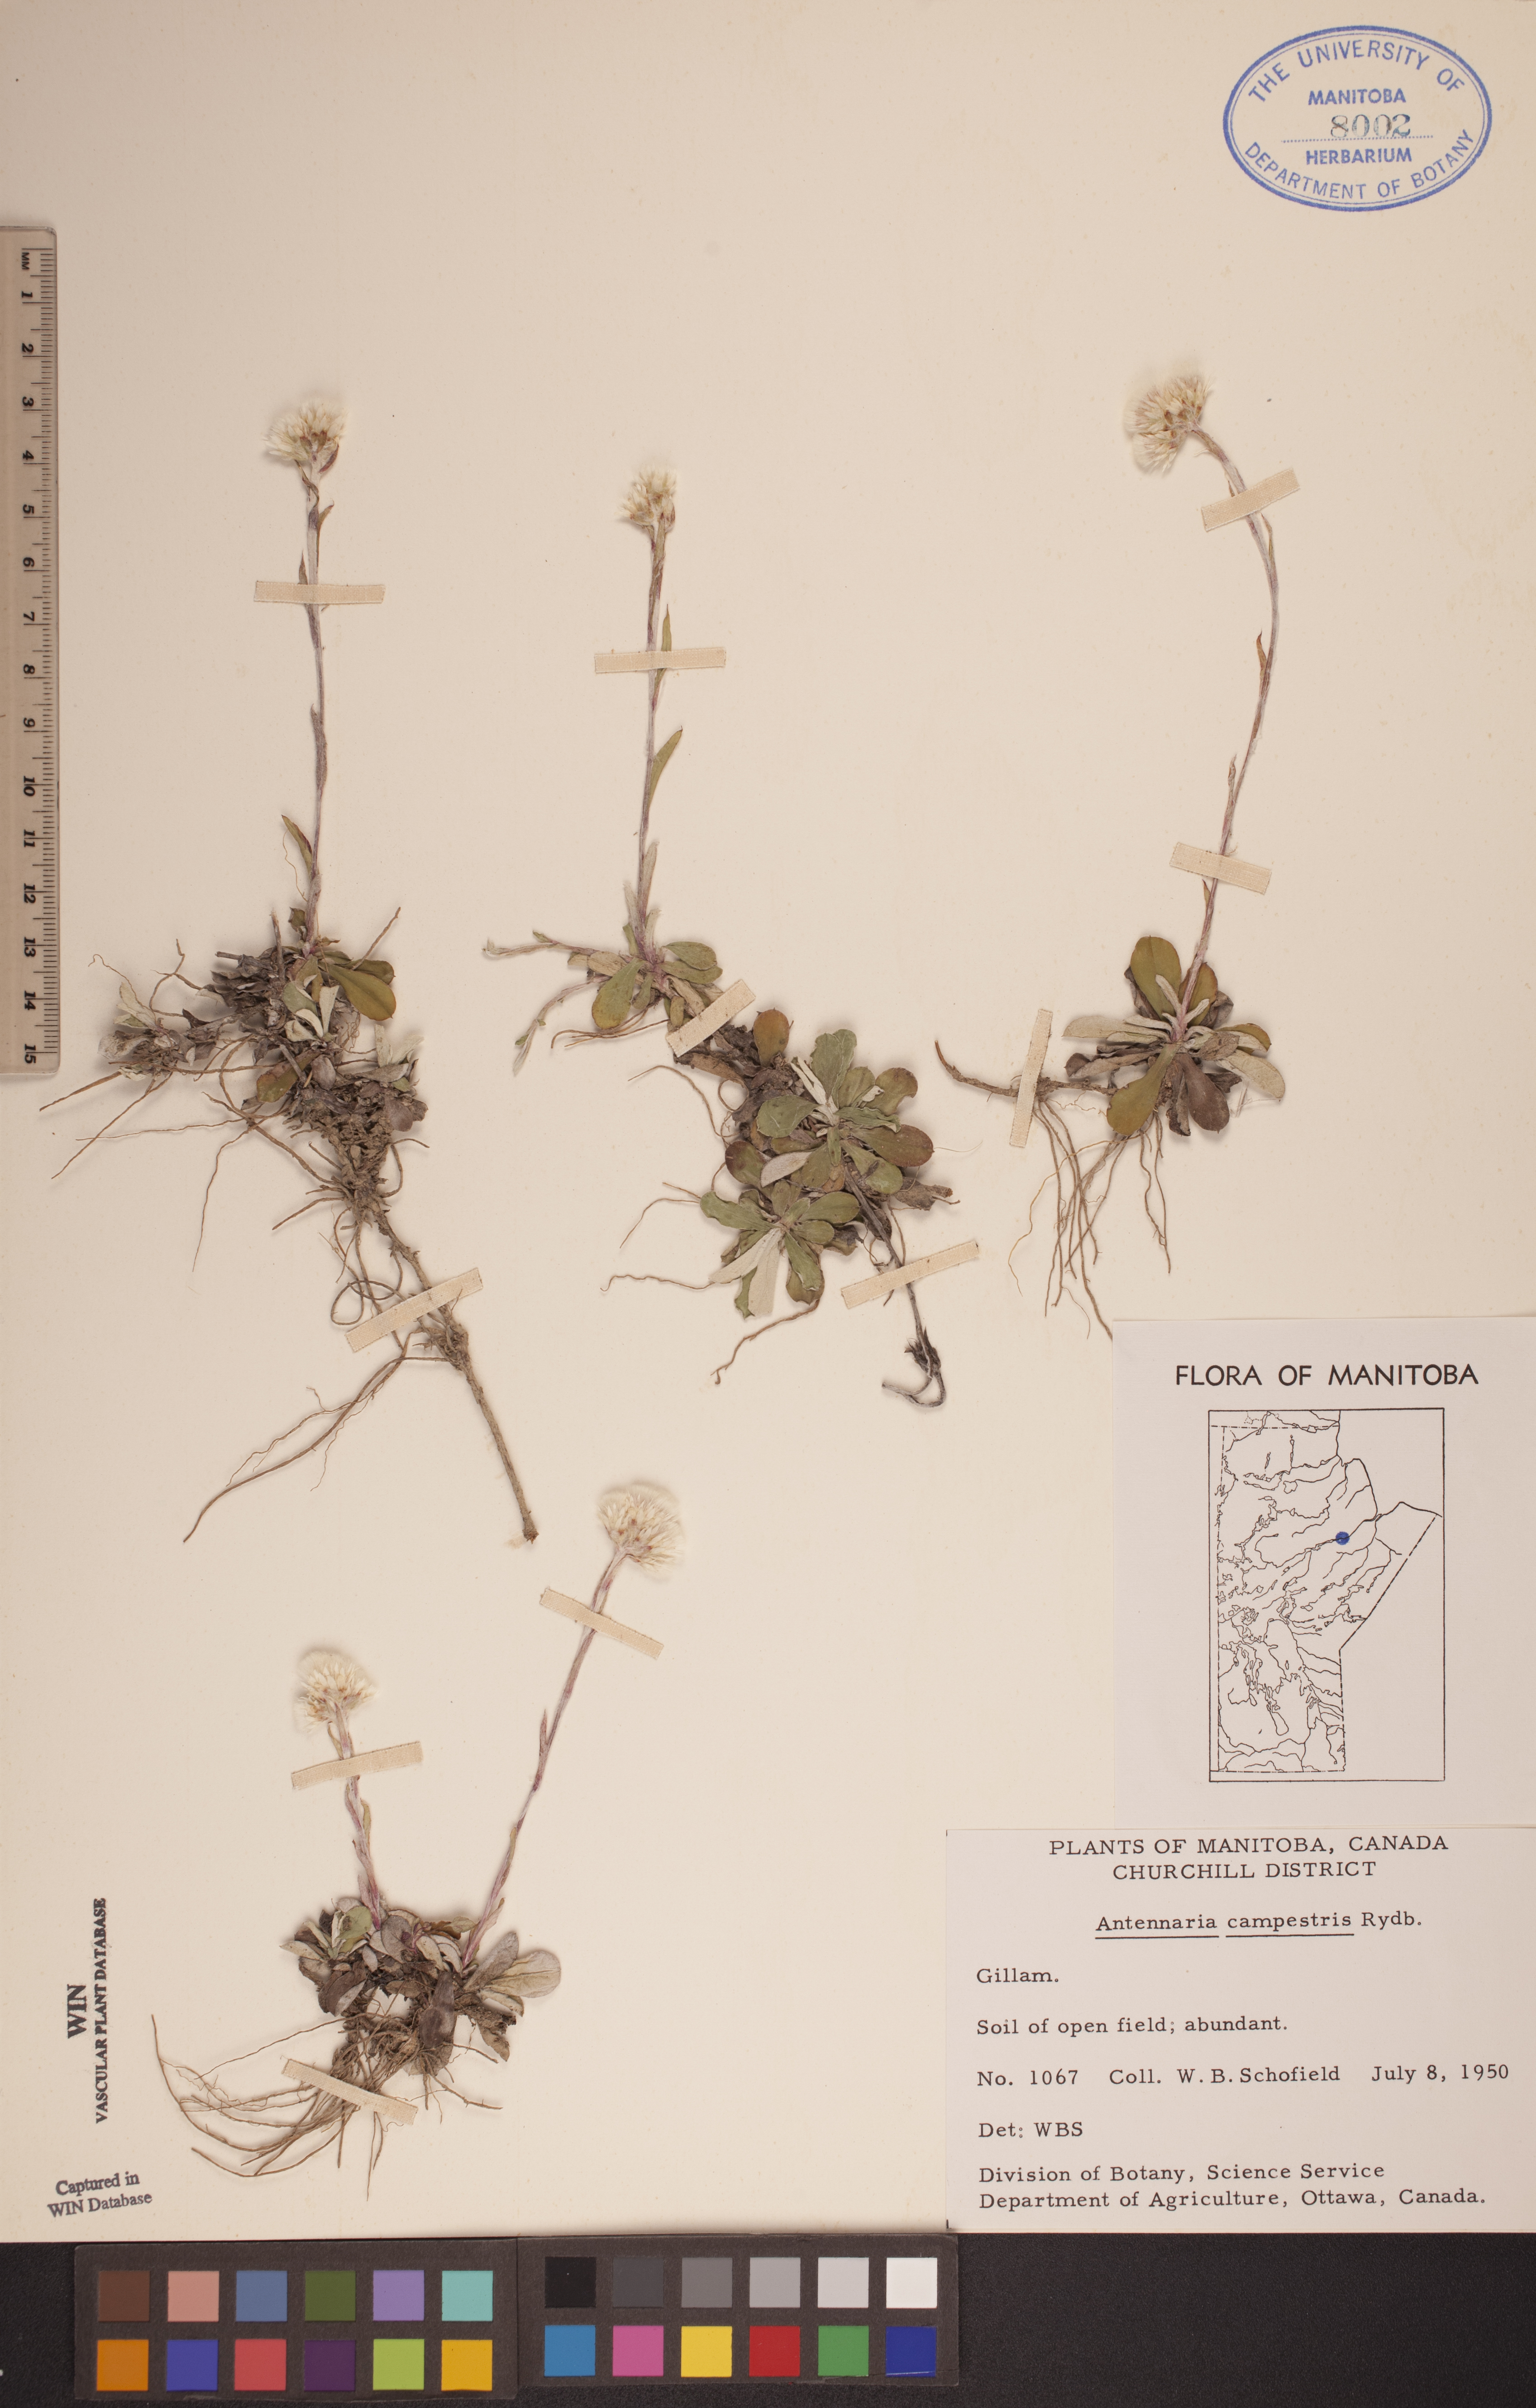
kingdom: Plantae
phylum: Tracheophyta
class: Magnoliopsida
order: Asterales
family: Asteraceae
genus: Antennaria
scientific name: Antennaria neglecta
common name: Field pussytoes
